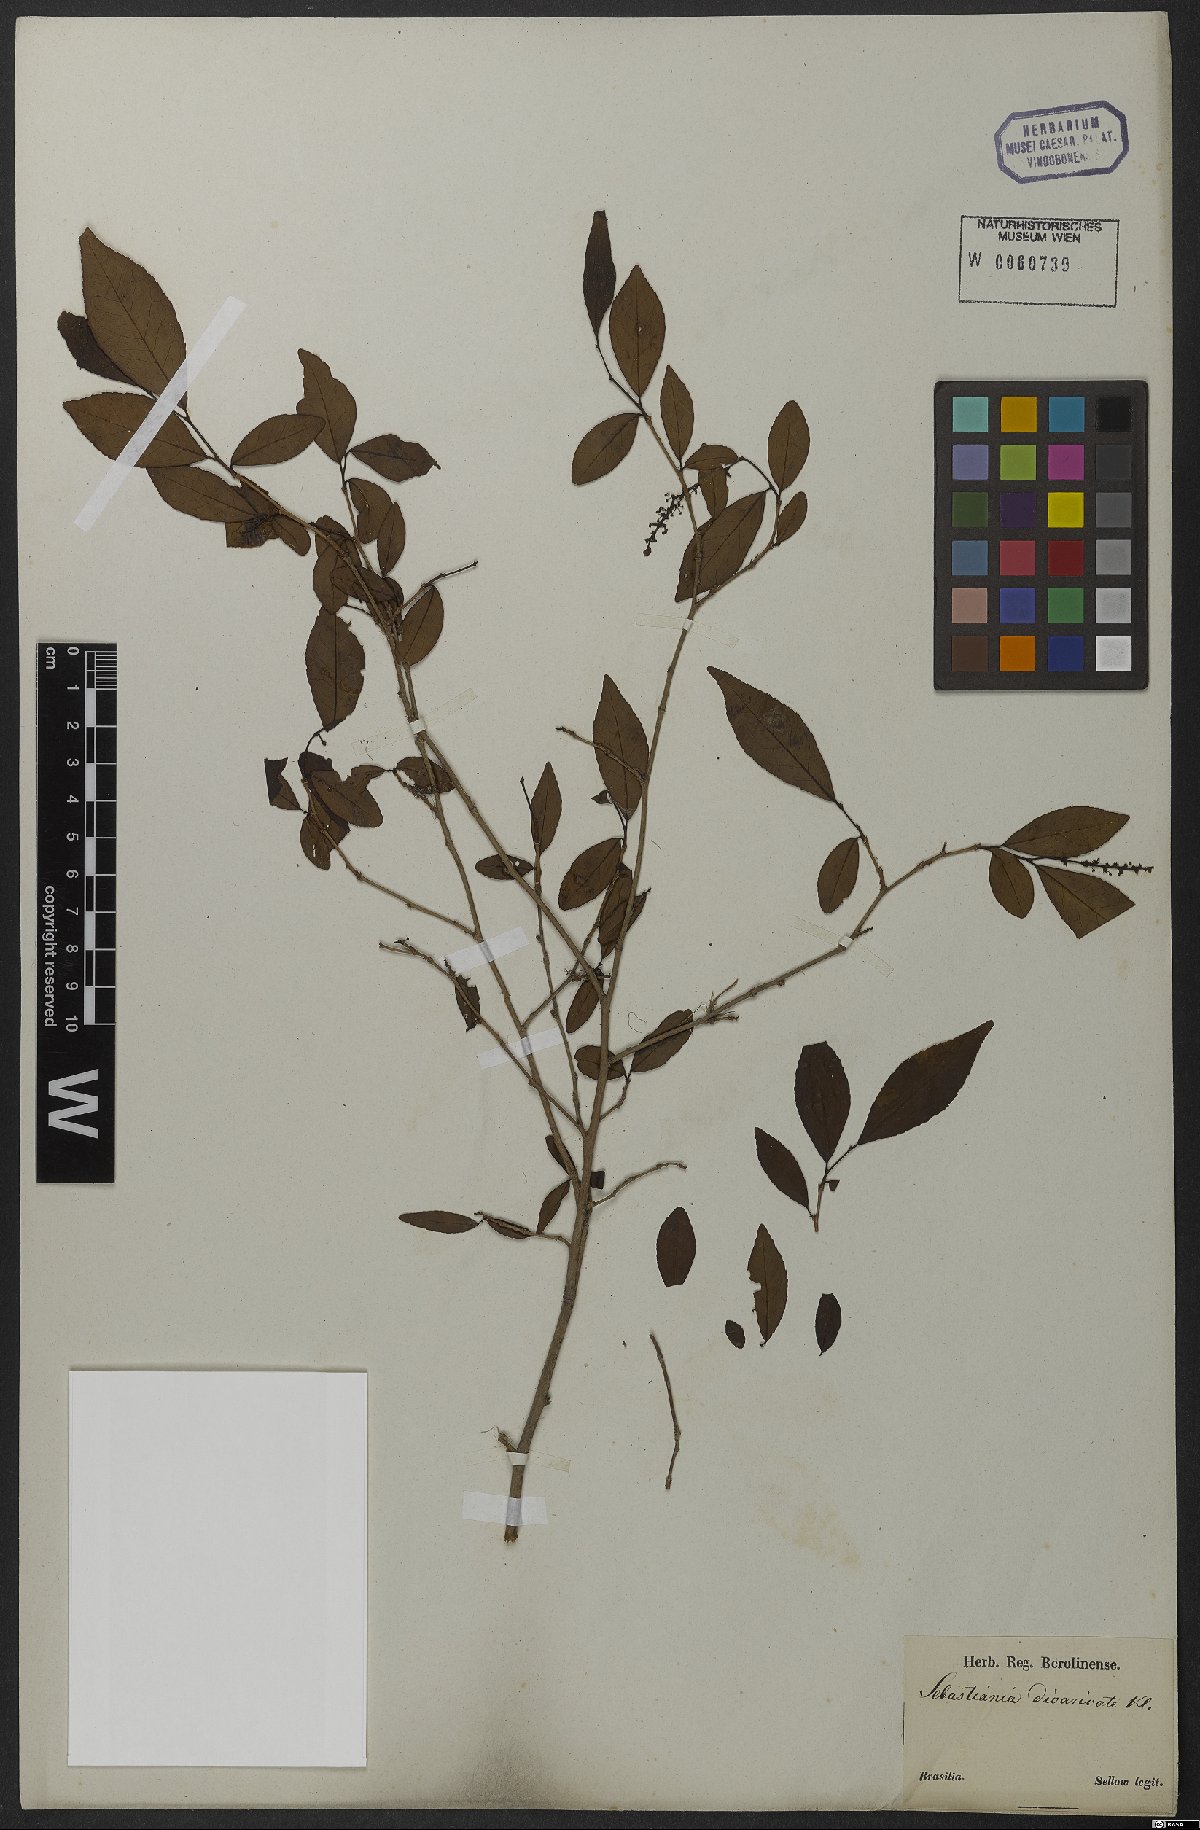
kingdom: Plantae
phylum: Tracheophyta
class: Magnoliopsida
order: Malpighiales
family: Euphorbiaceae
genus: Sebastiania
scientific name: Sebastiania ramosissima
